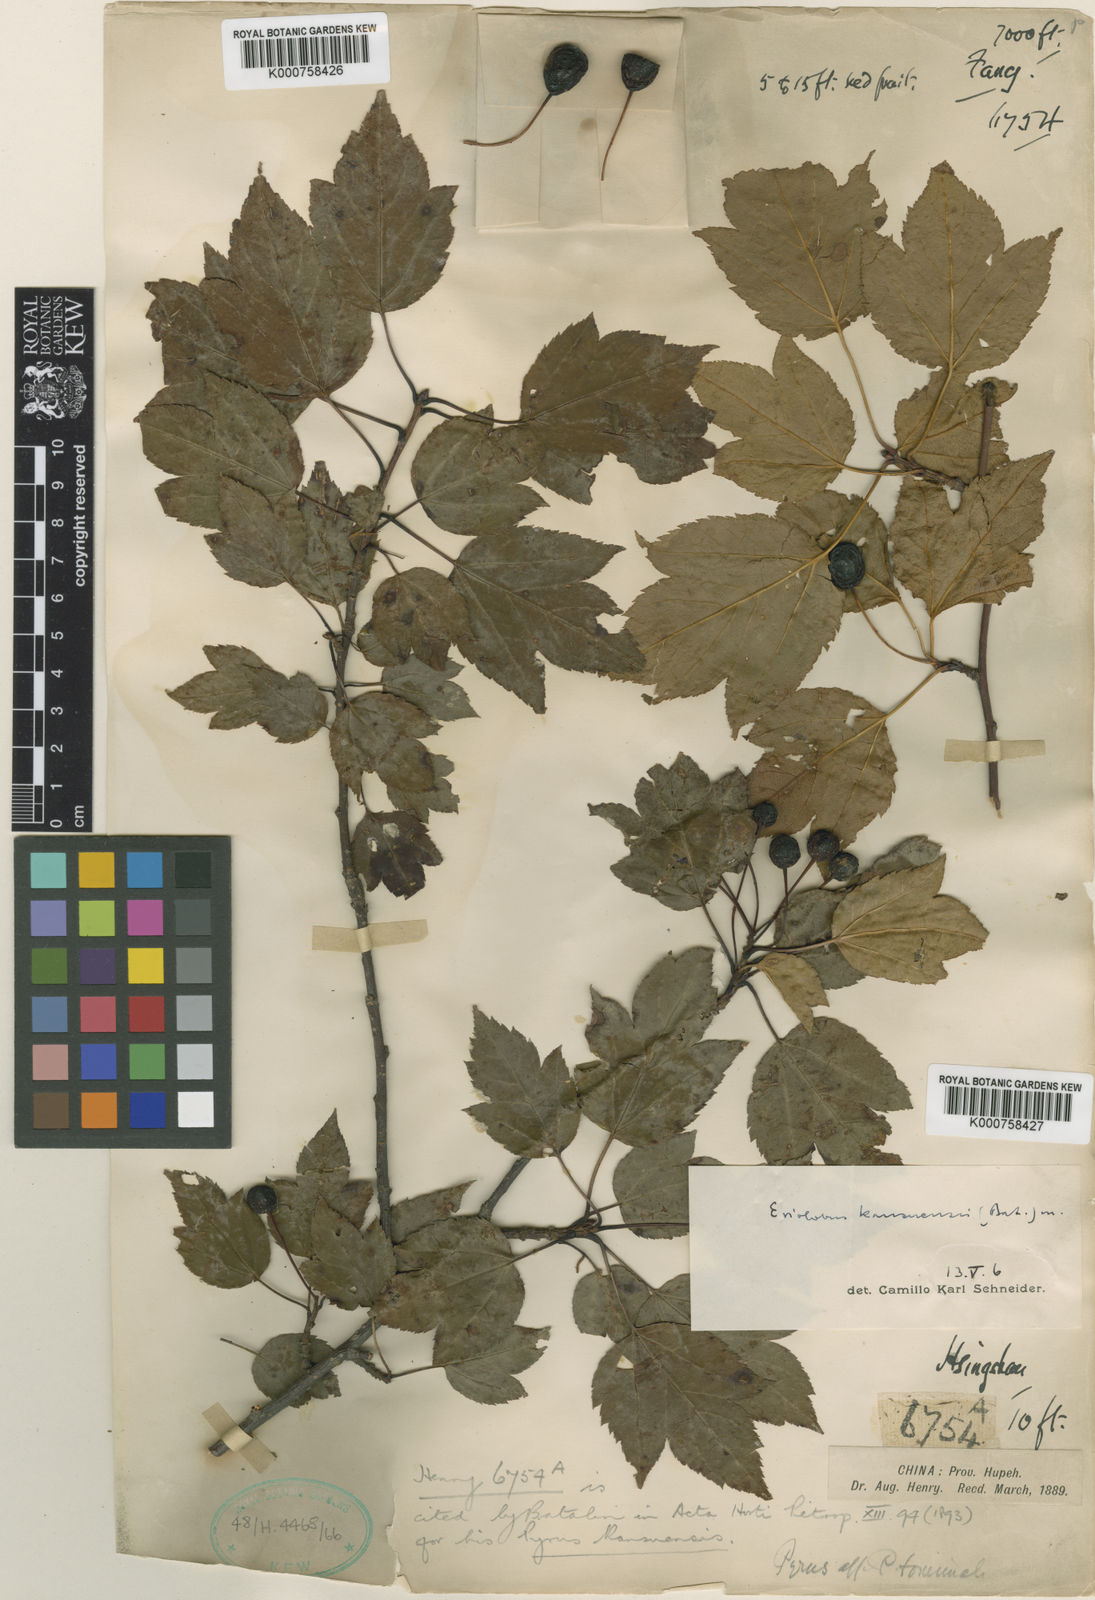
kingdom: Plantae
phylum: Tracheophyta
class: Magnoliopsida
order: Rosales
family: Rosaceae
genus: Malus
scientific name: Malus kansuensis
